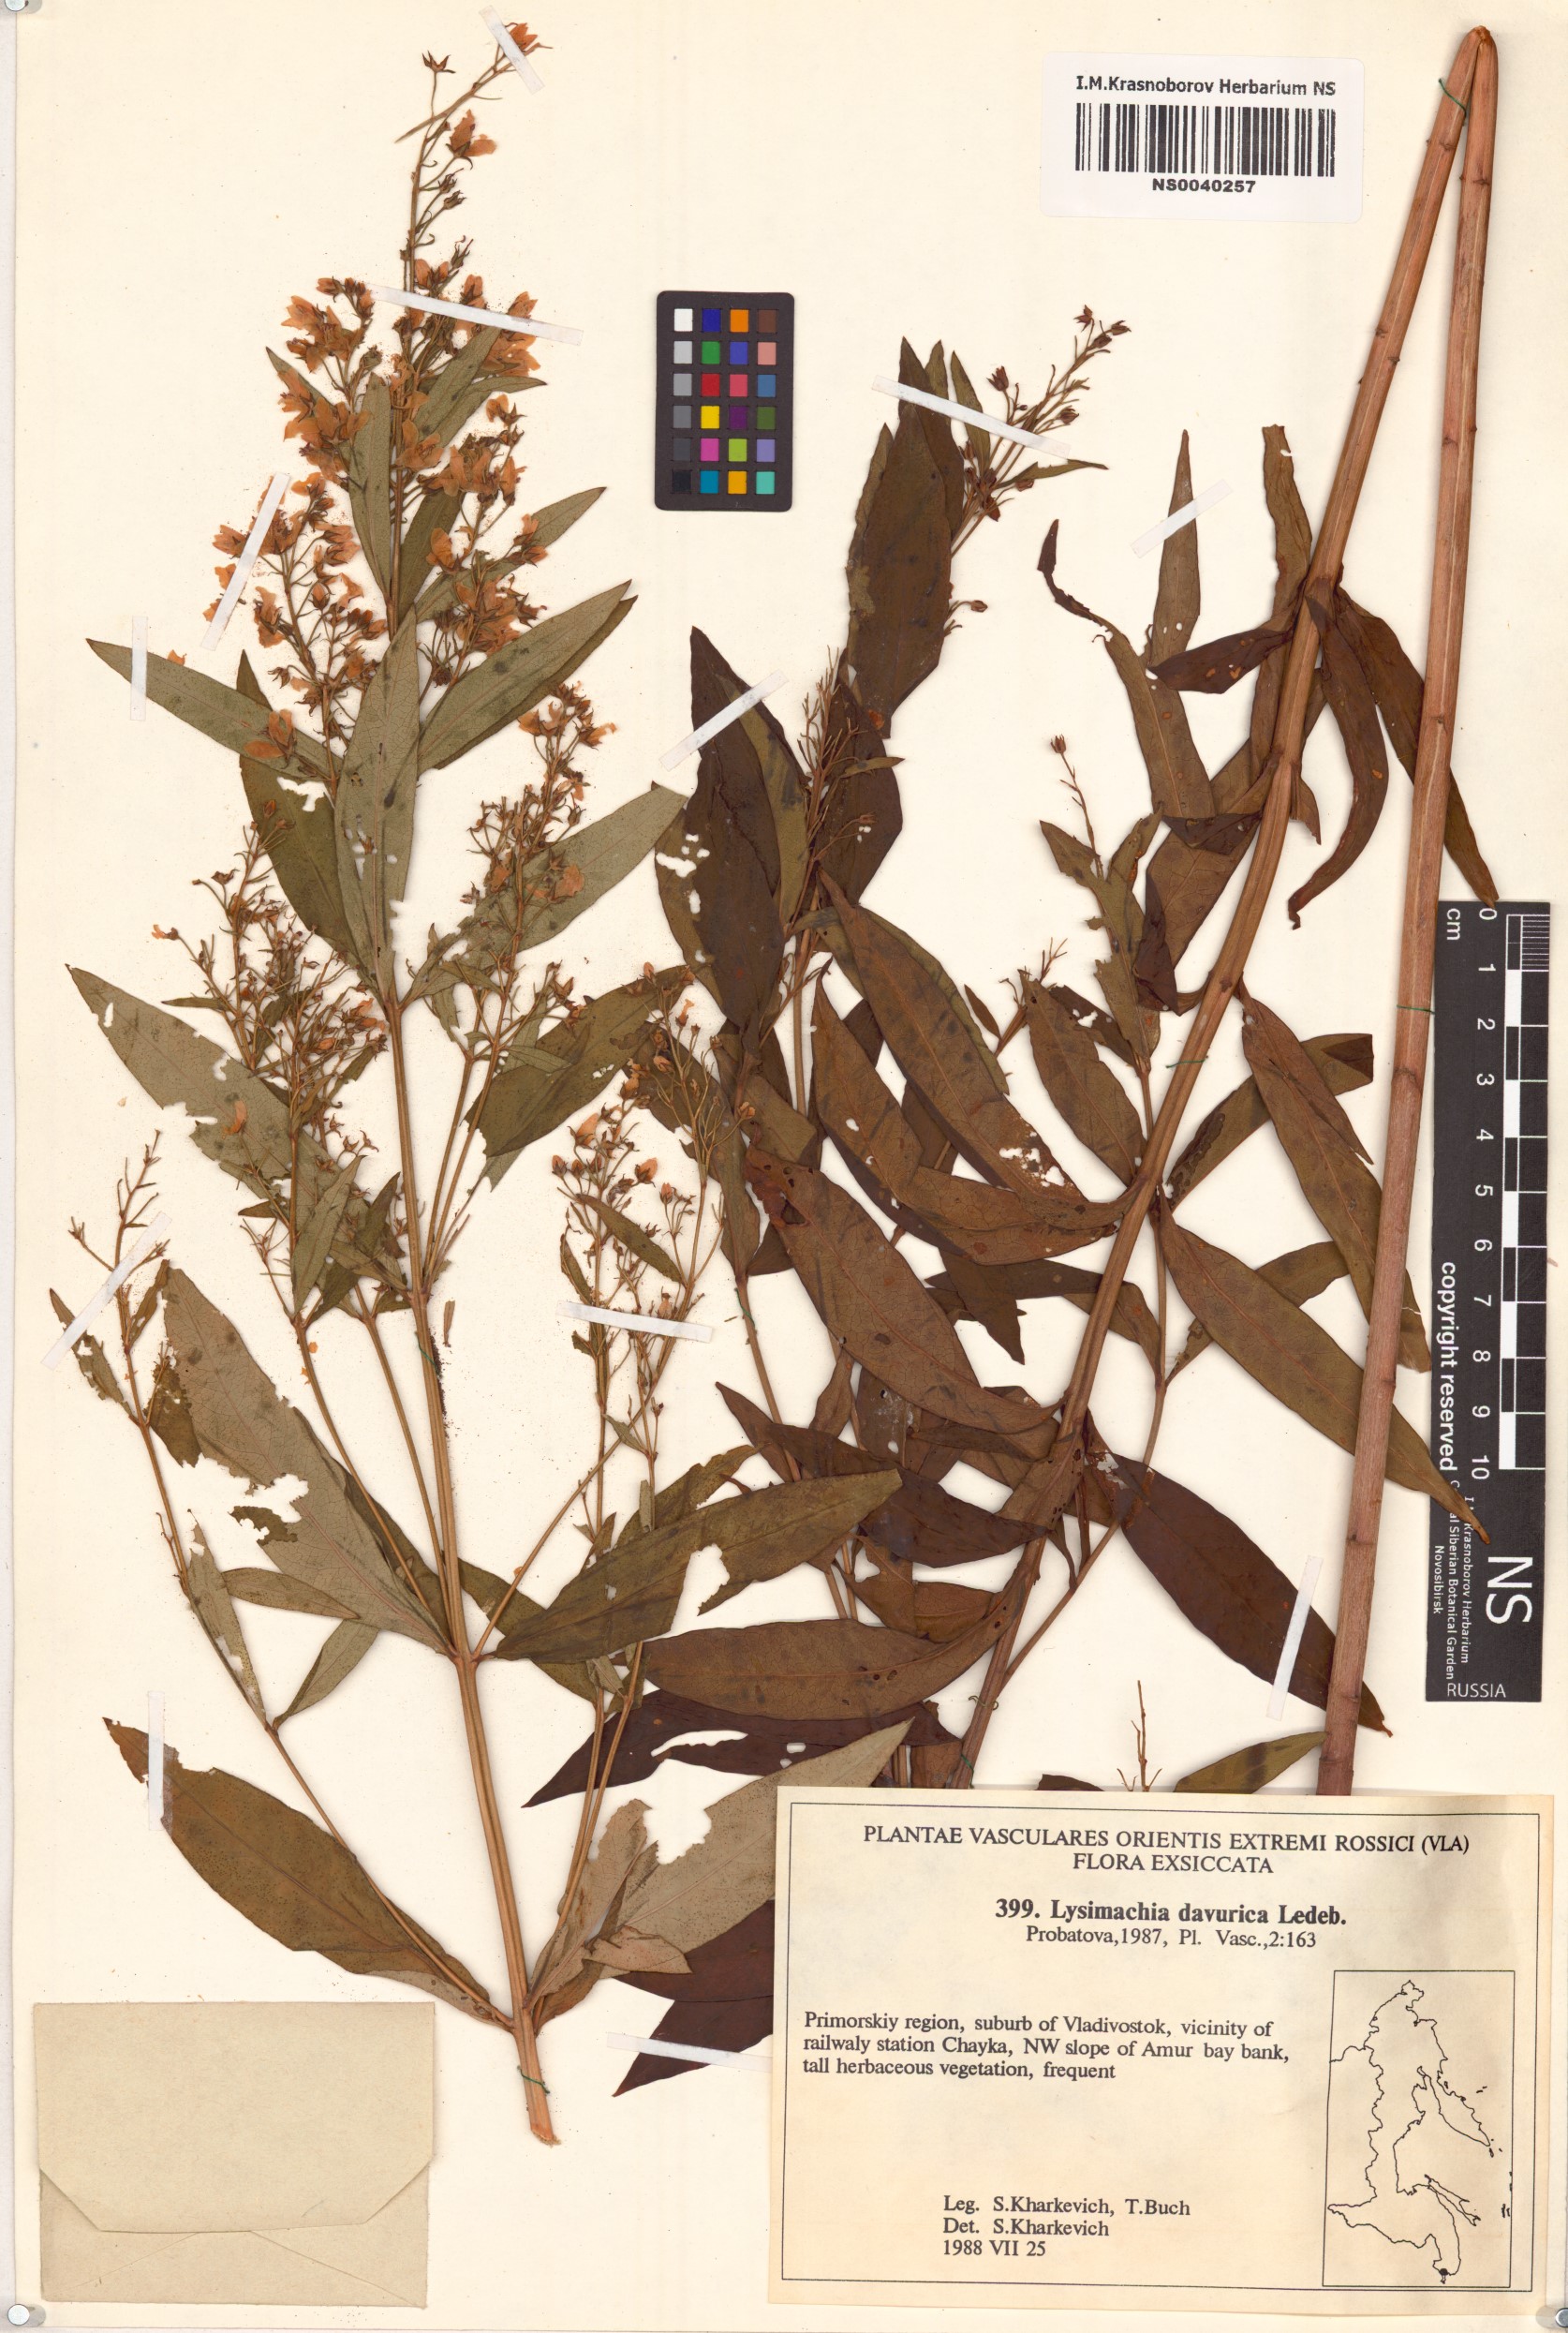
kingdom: Plantae
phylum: Tracheophyta
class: Magnoliopsida
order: Ericales
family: Primulaceae
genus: Lysimachia
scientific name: Lysimachia davurica
